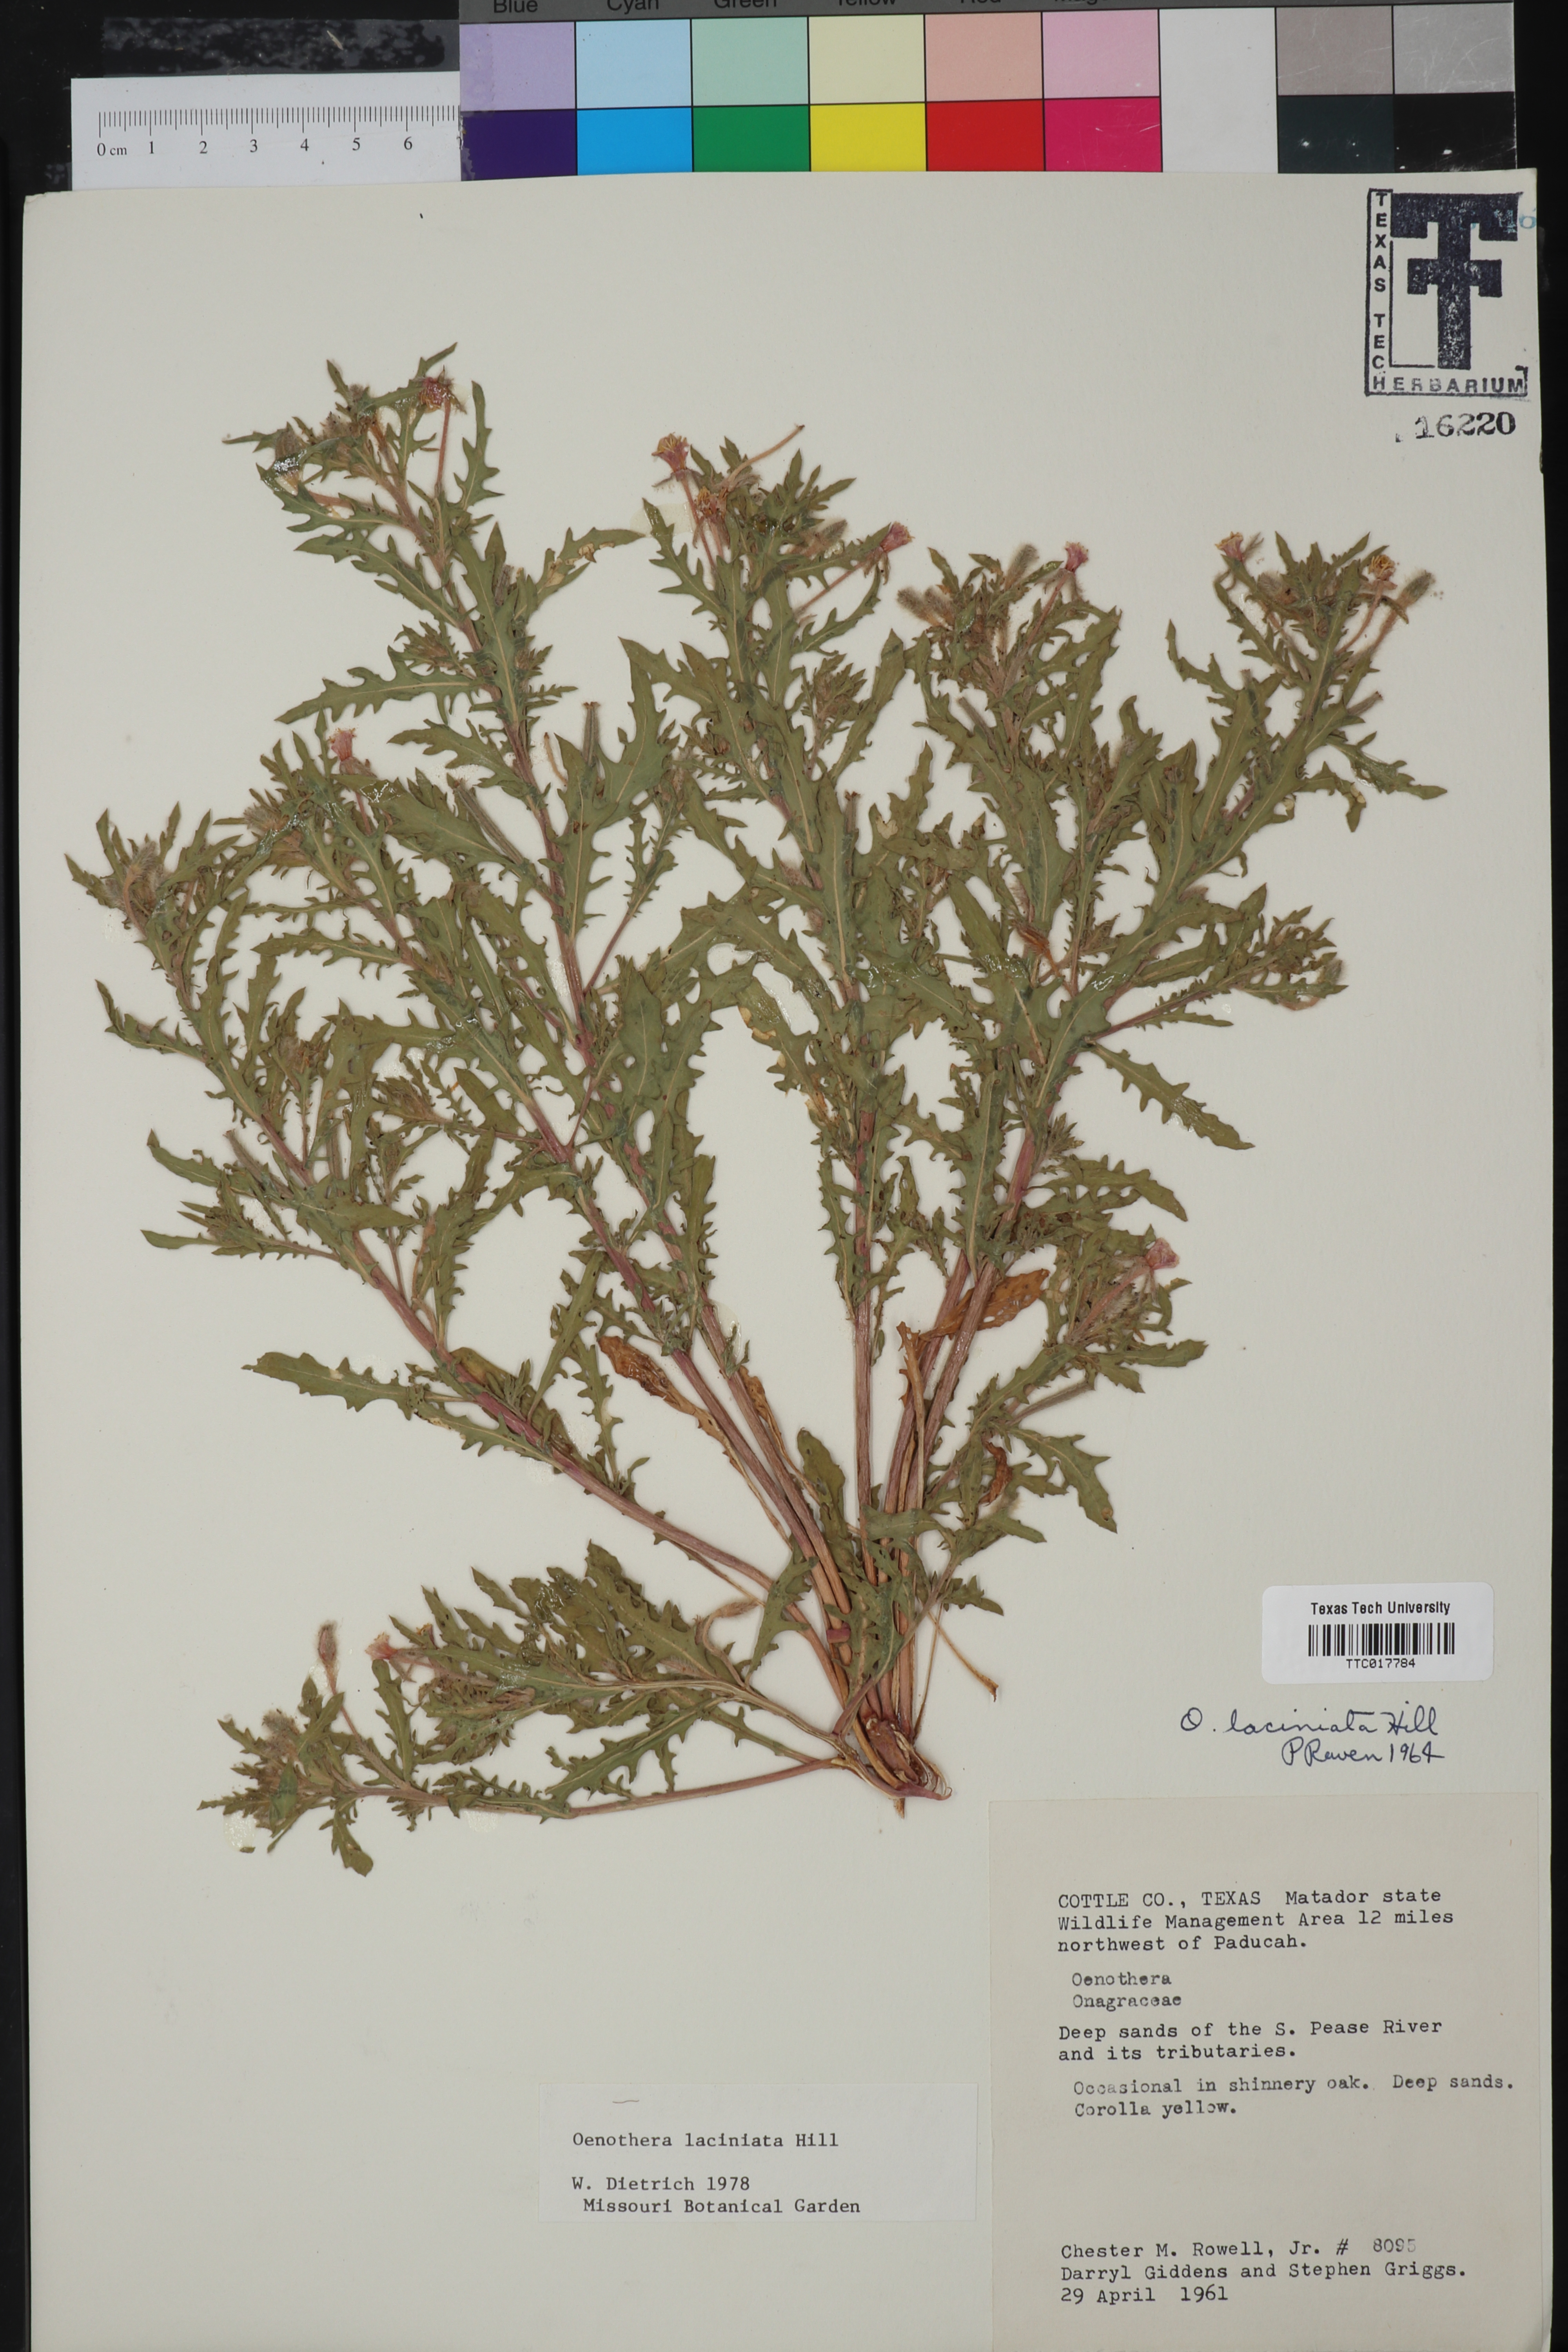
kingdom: Plantae
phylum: Tracheophyta
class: Magnoliopsida
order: Myrtales
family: Onagraceae
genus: Oenothera
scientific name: Oenothera laciniata
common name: Cut-leaved evening-primrose
